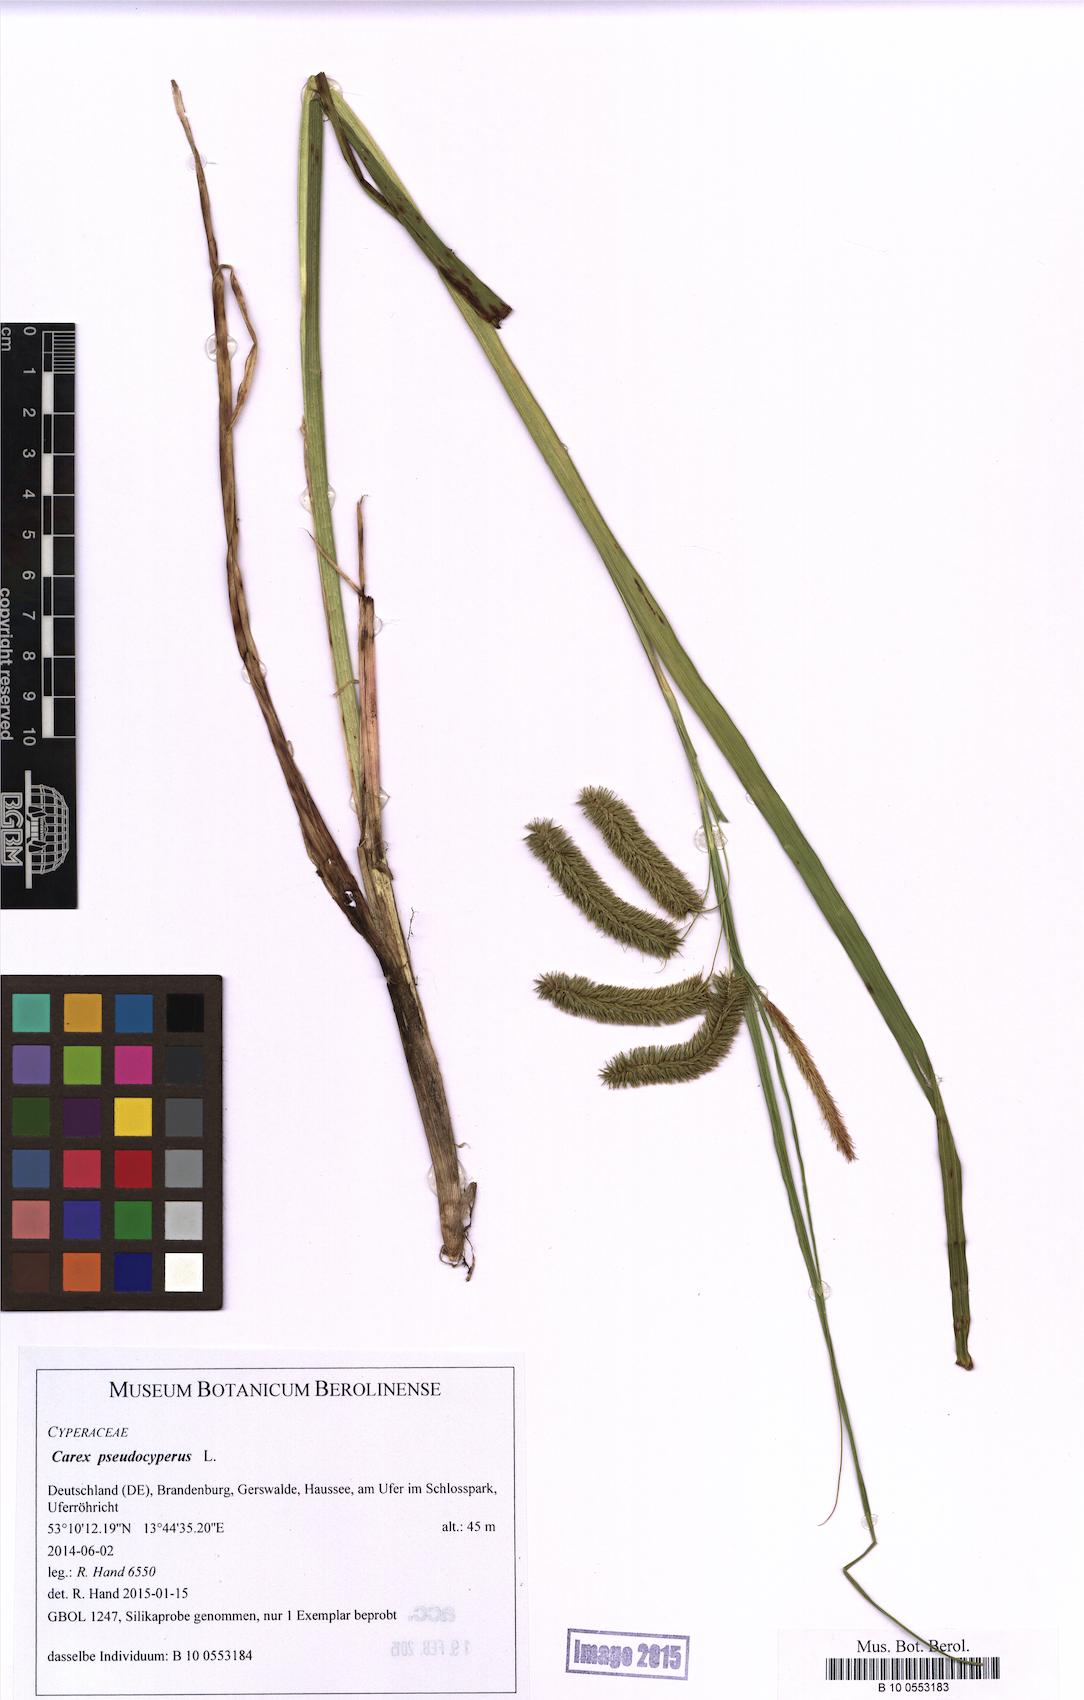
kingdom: Plantae
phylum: Tracheophyta
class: Liliopsida
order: Poales
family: Cyperaceae
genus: Carex
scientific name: Carex pseudocyperus
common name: Cyperus sedge
